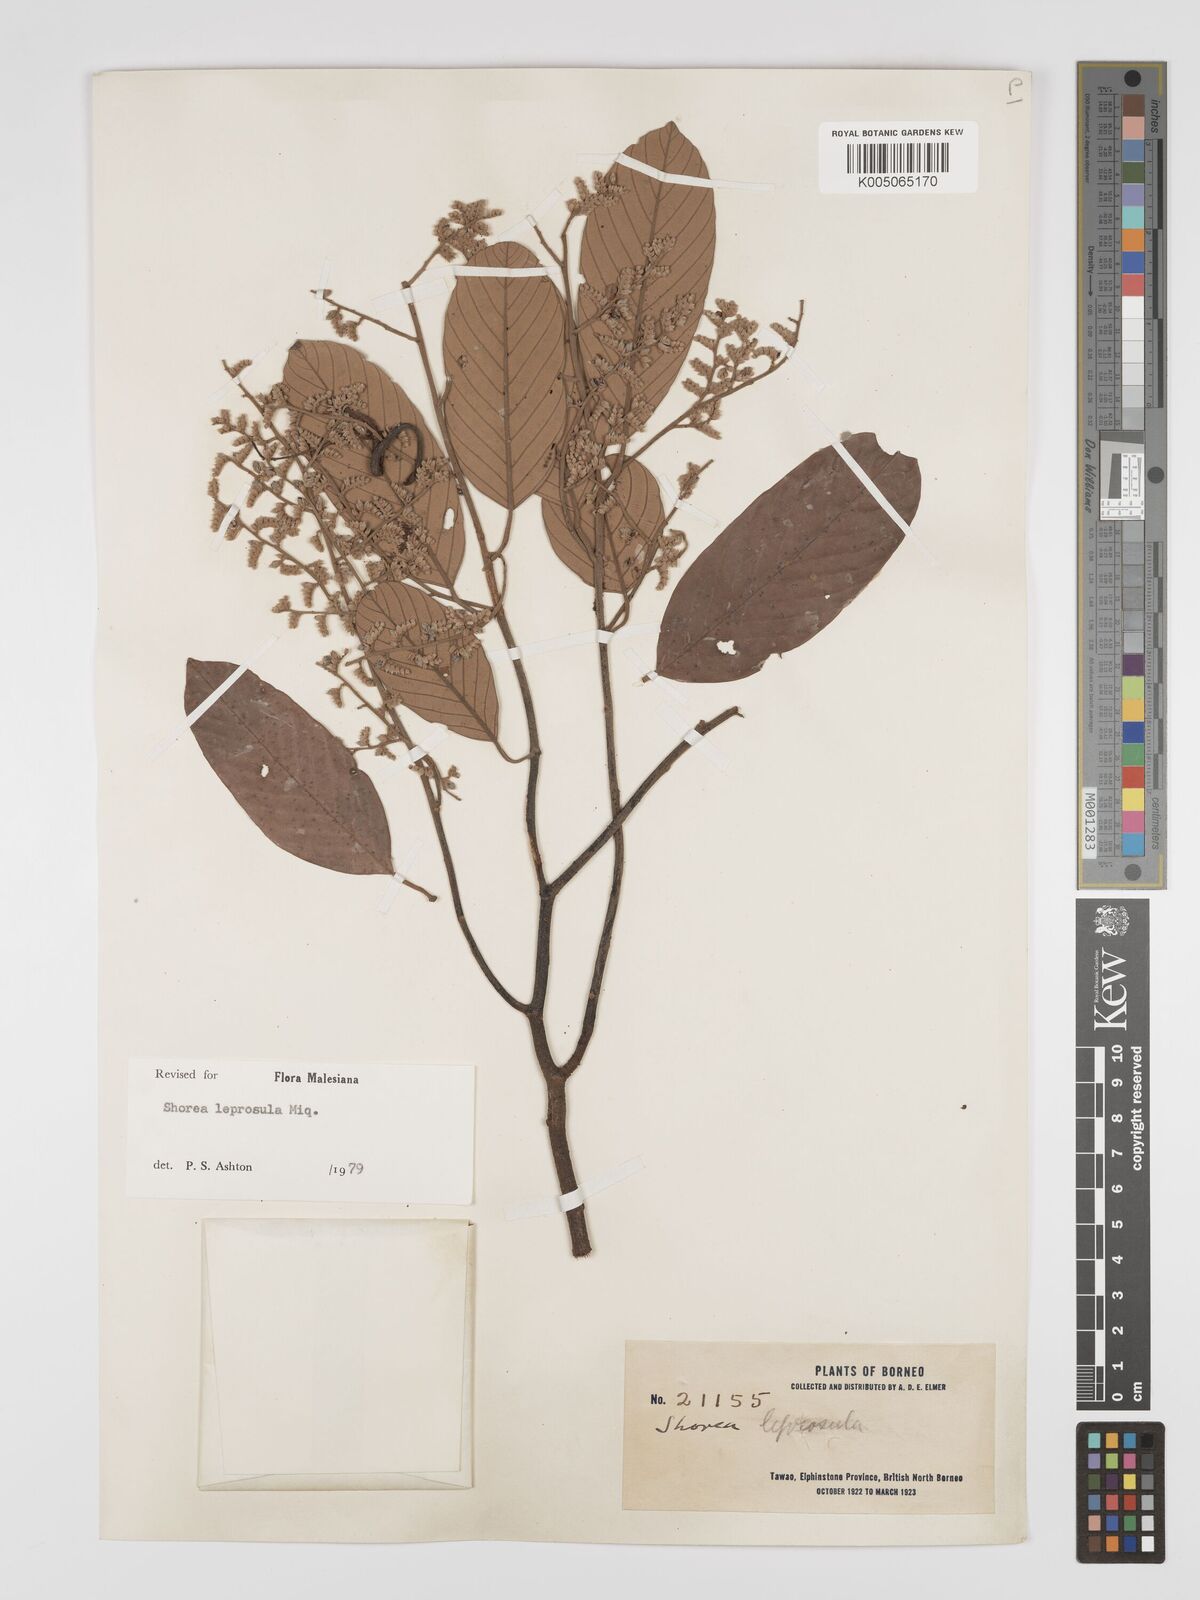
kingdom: Plantae
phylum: Tracheophyta
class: Magnoliopsida
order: Malvales
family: Dipterocarpaceae
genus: Shorea
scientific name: Shorea leprosula
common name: Light red meranti
